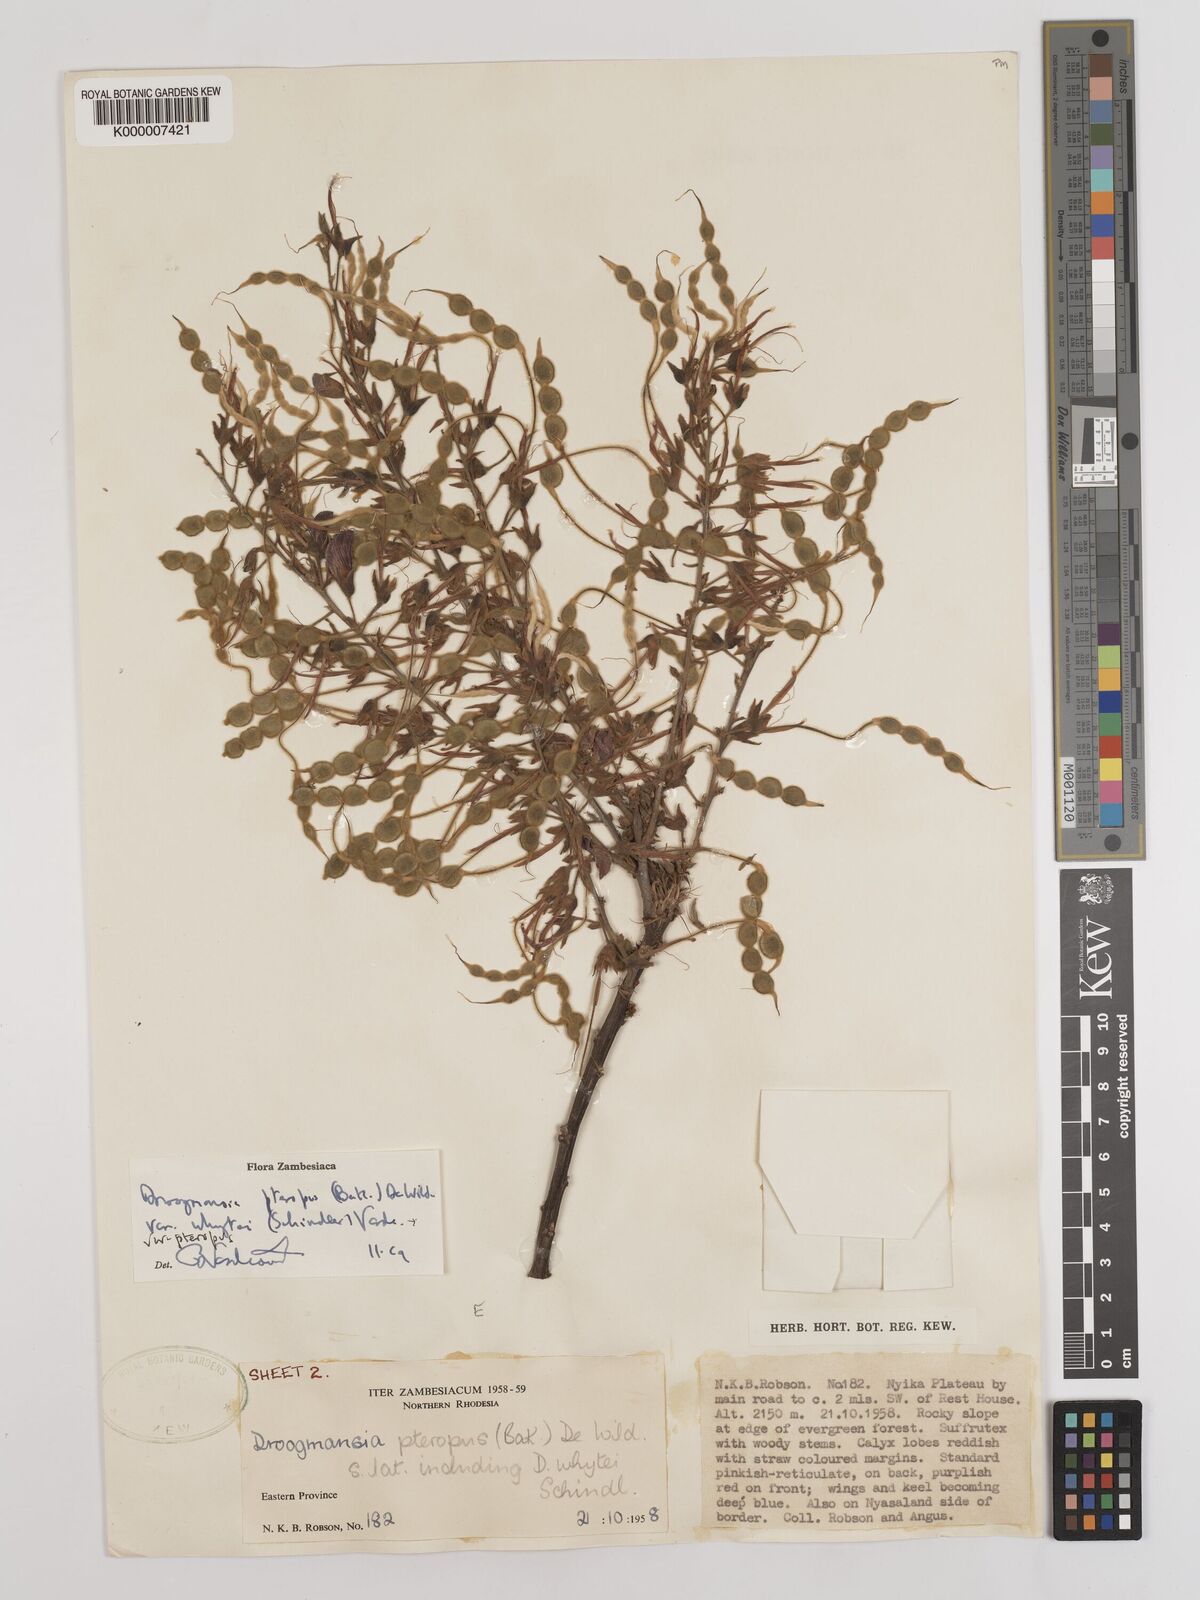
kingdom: Plantae
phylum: Tracheophyta
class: Magnoliopsida
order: Fabales
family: Fabaceae
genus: Droogmansia
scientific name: Droogmansia pteropus
